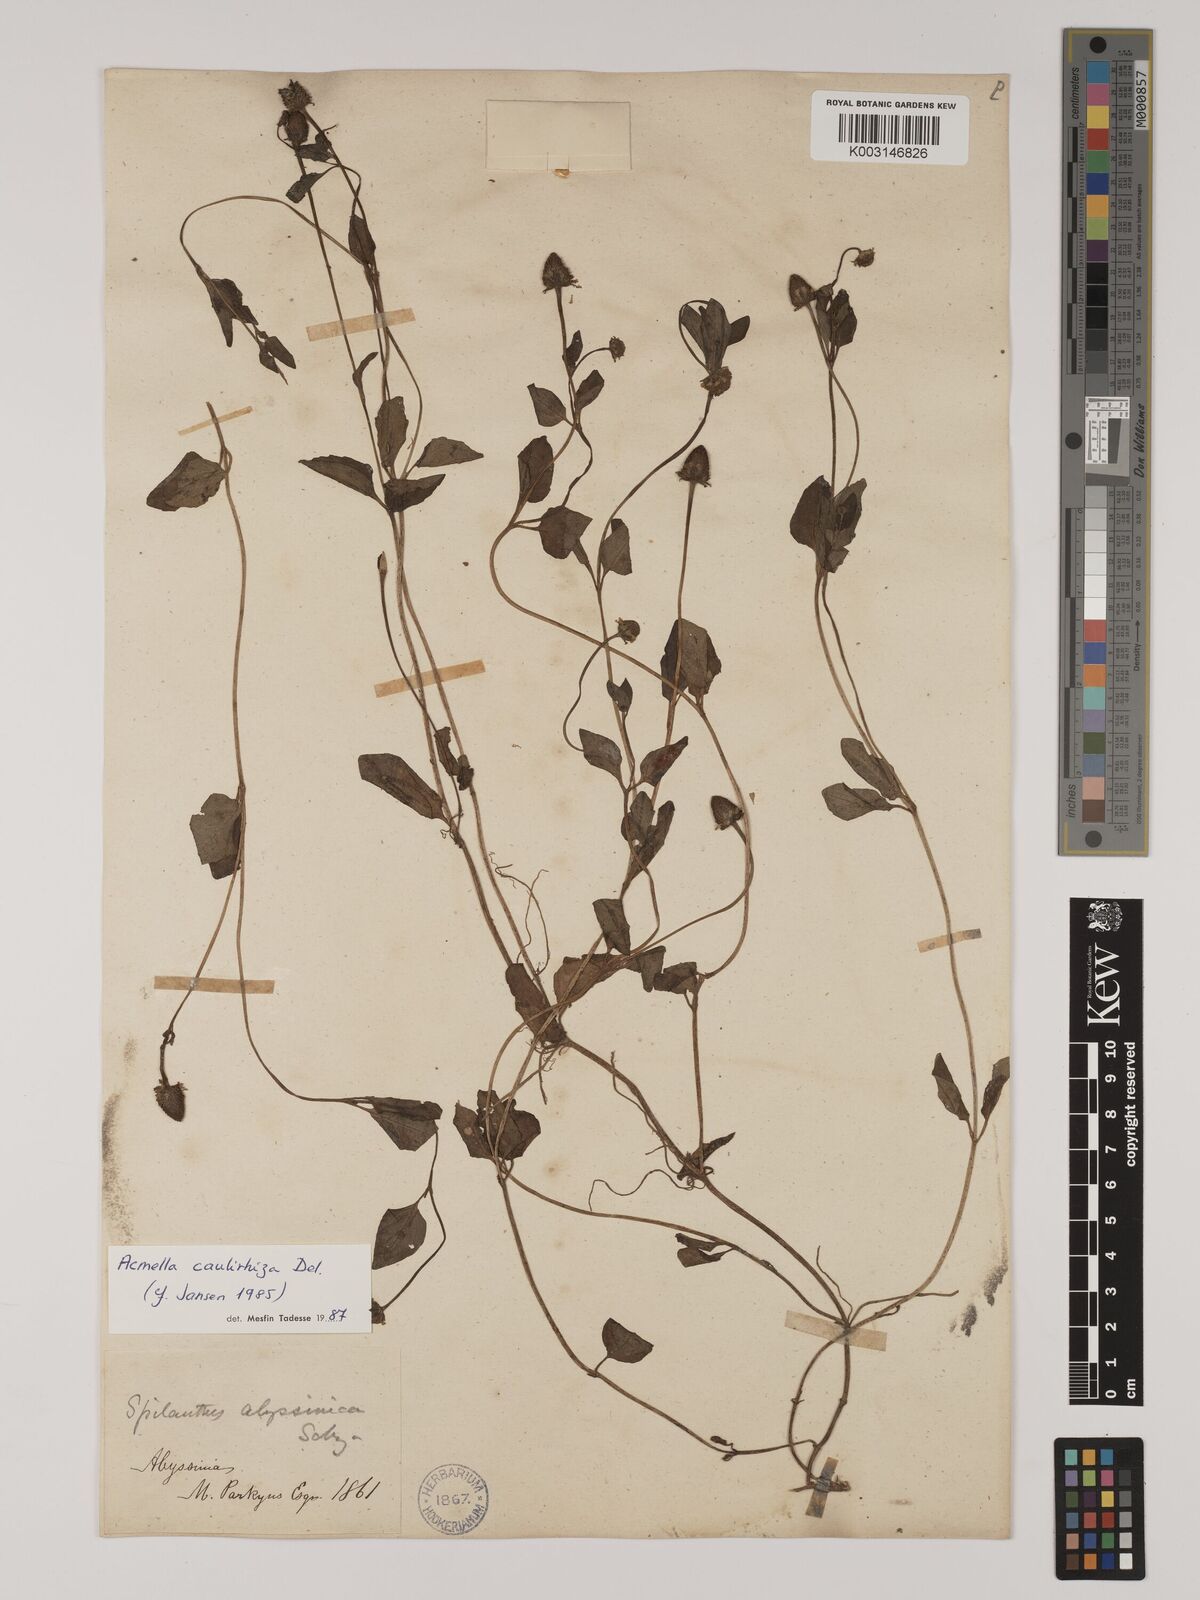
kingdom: Plantae
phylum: Tracheophyta
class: Magnoliopsida
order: Asterales
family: Asteraceae
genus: Acmella
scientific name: Acmella caulirhiza
